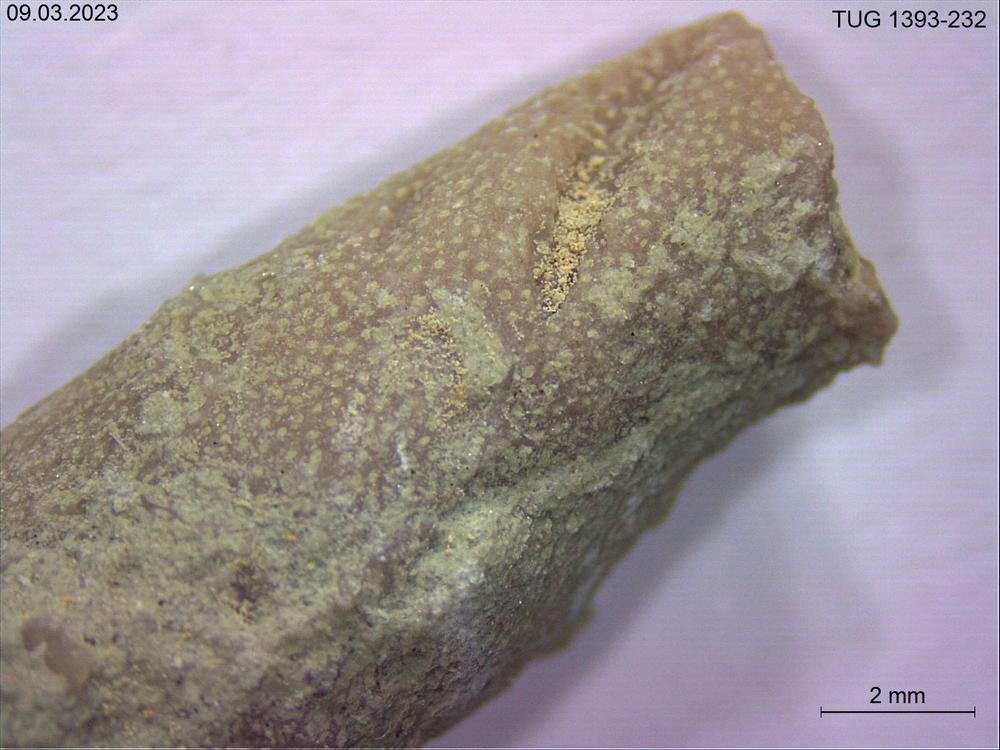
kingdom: Animalia
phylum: Bryozoa
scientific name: Bryozoa
